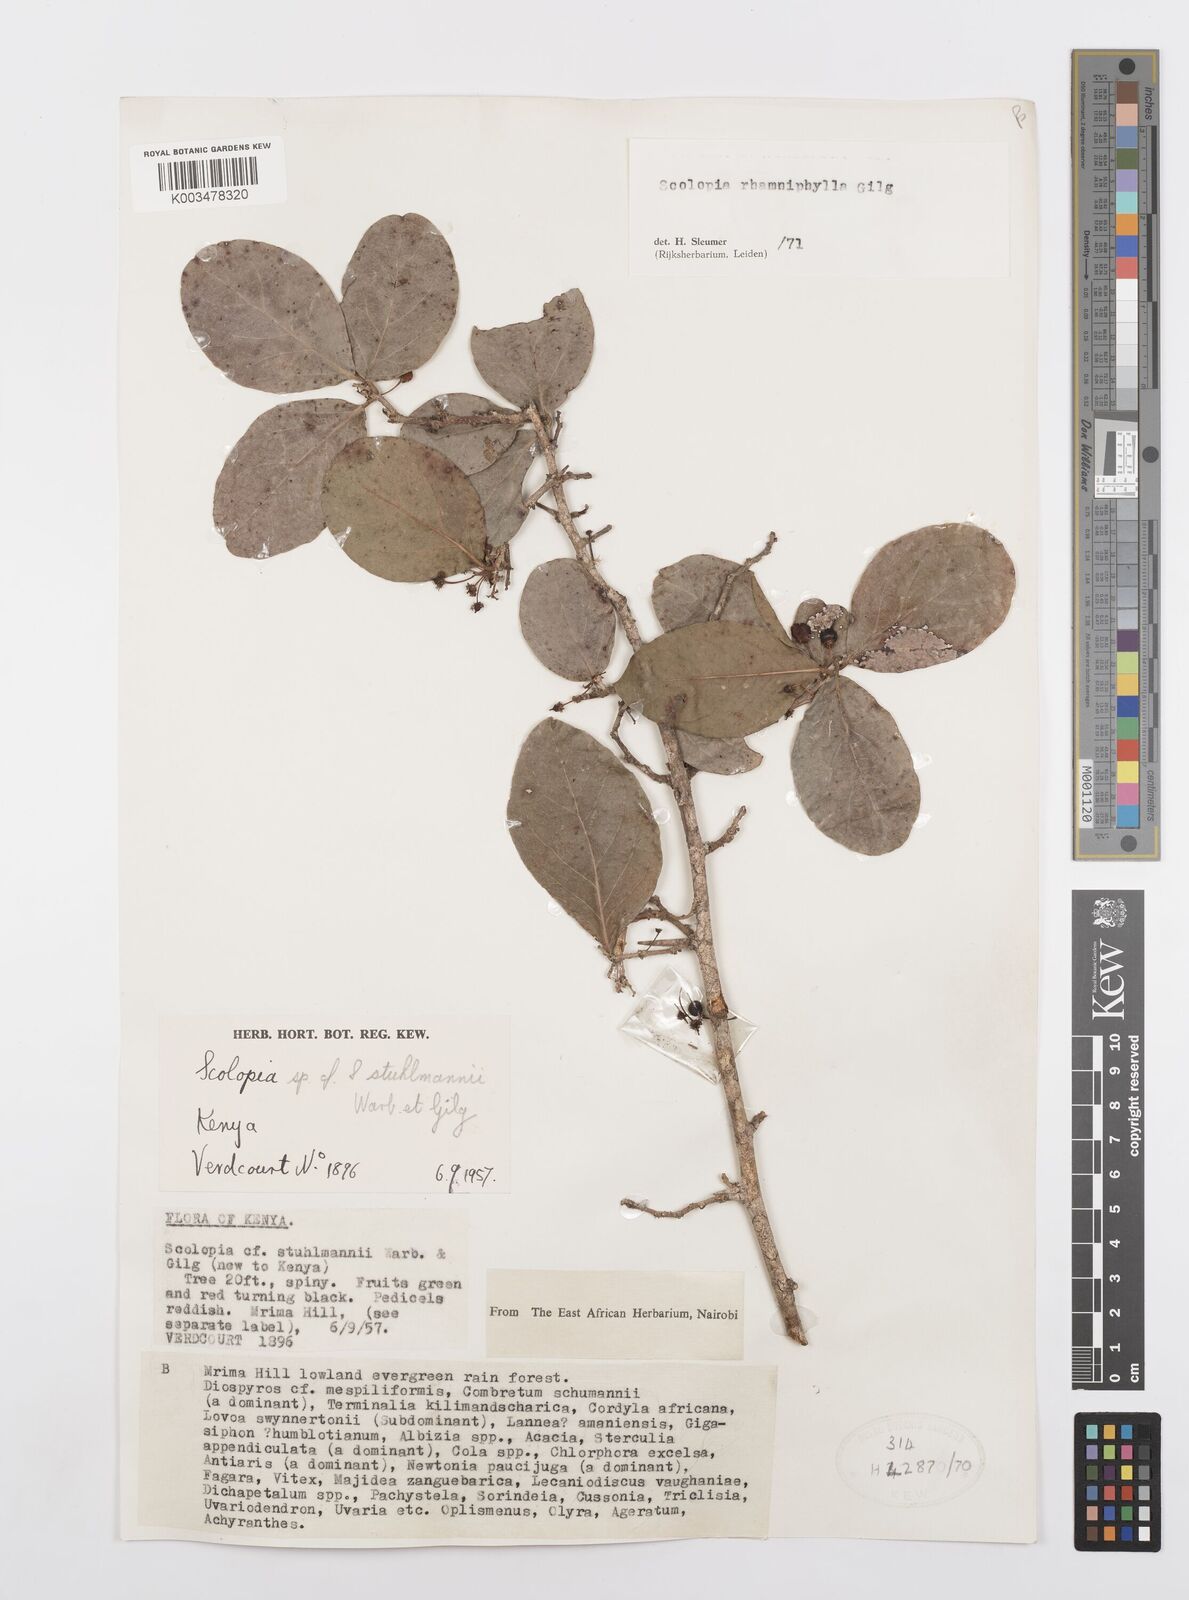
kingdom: Plantae
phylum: Tracheophyta
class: Magnoliopsida
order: Malpighiales
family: Salicaceae
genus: Scolopia
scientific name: Scolopia rhamniphylla
